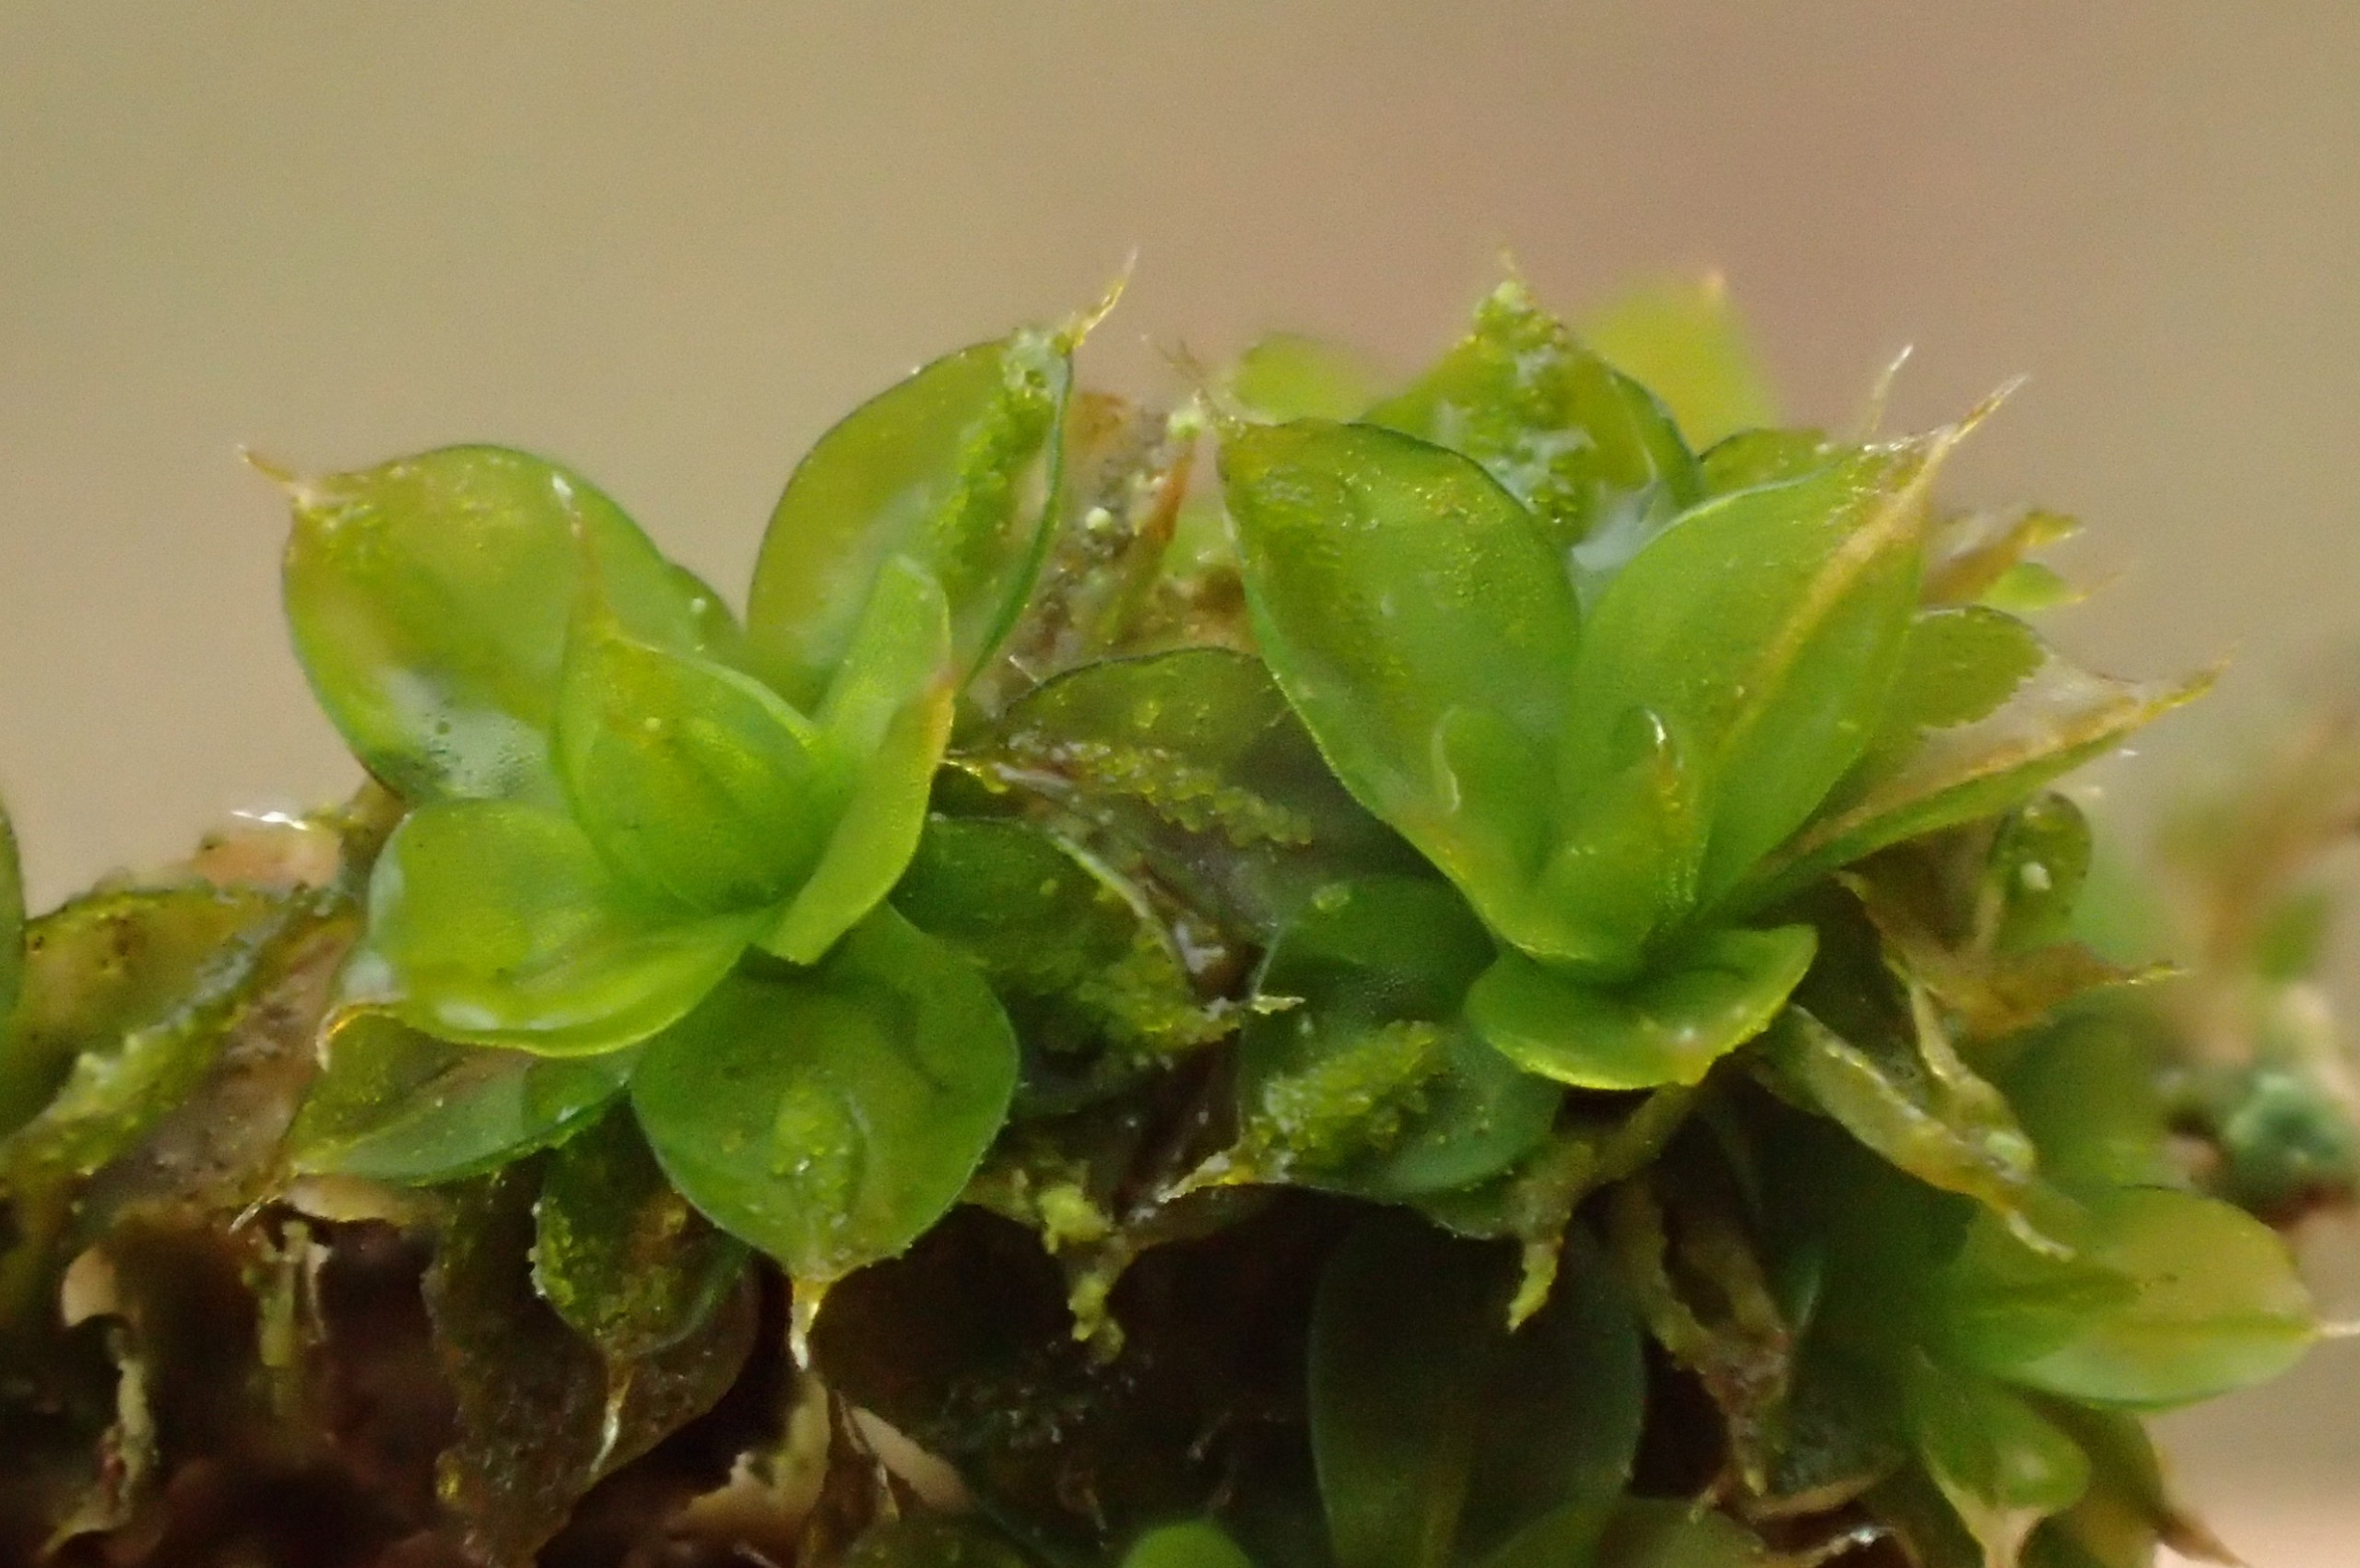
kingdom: Plantae
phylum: Bryophyta
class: Bryopsida
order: Pottiales
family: Pottiaceae
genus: Syntrichia
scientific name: Syntrichia papillosa
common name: Bark-hårstjerne
